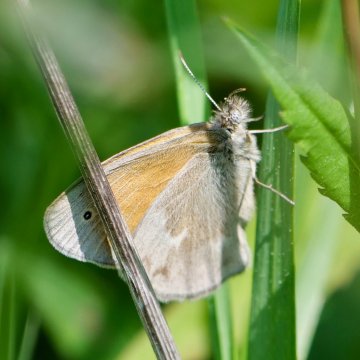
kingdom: Animalia
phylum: Arthropoda
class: Insecta
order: Lepidoptera
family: Nymphalidae
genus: Coenonympha
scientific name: Coenonympha tullia
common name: Large Heath
